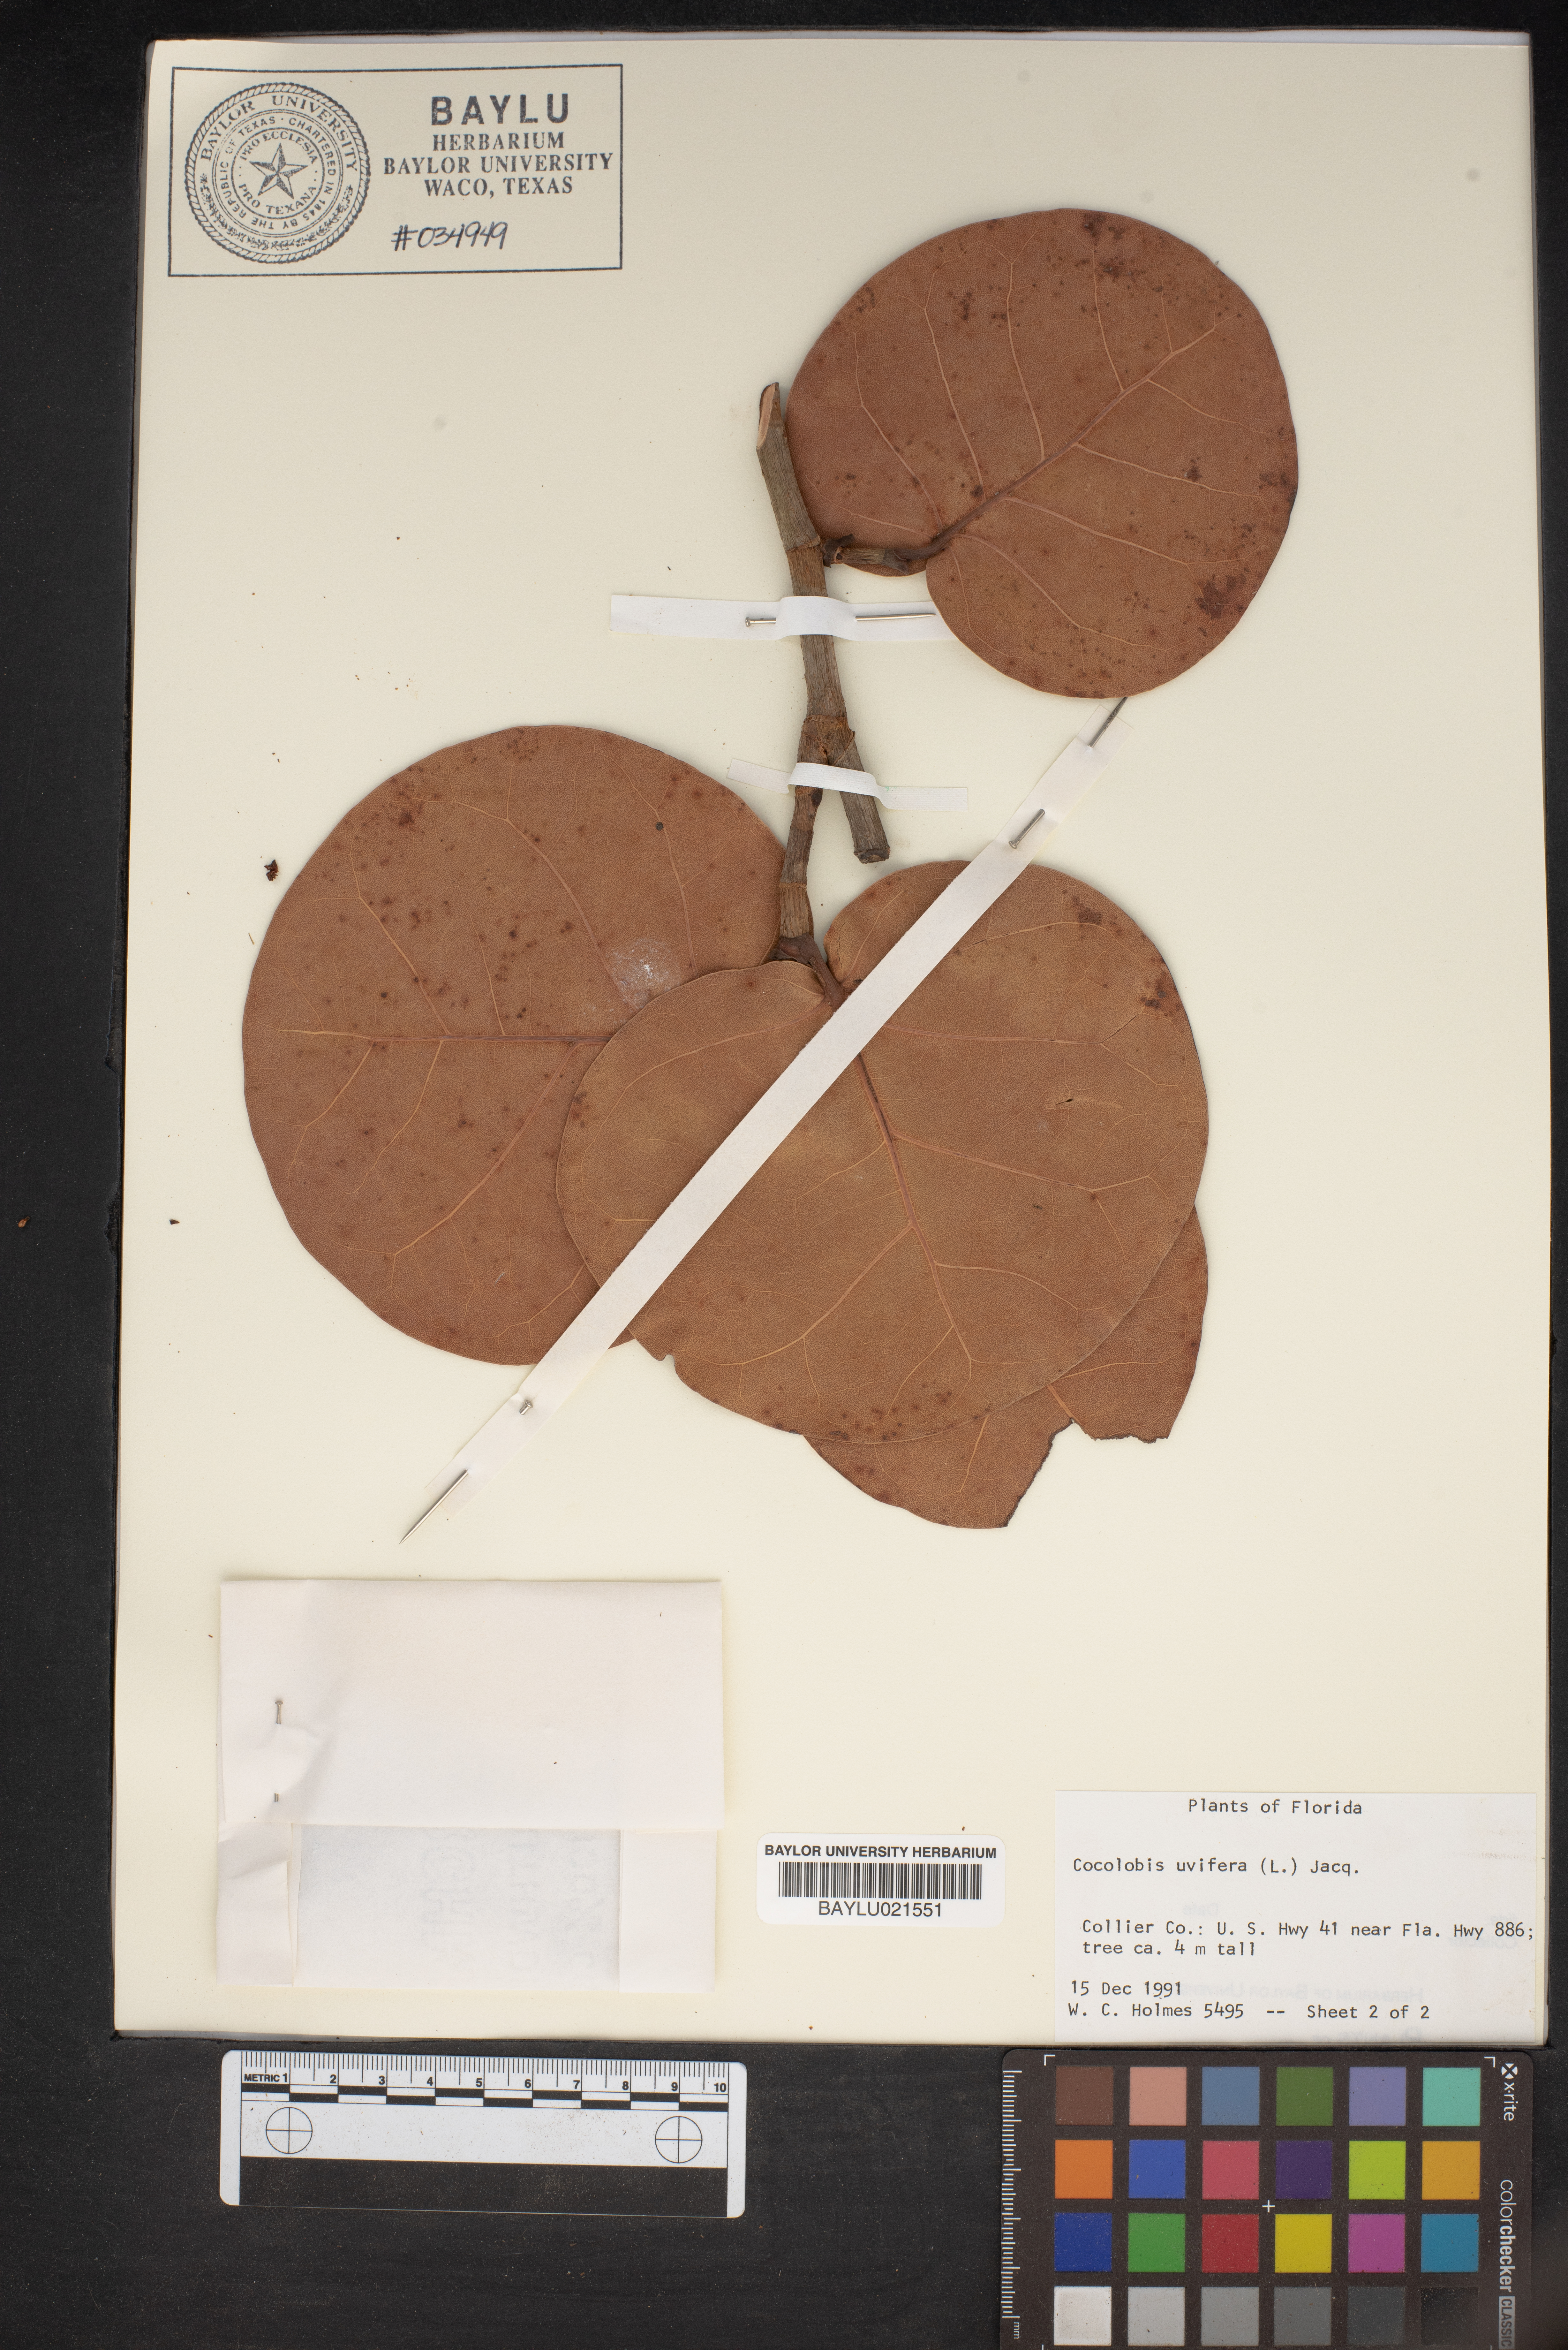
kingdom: Plantae
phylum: Tracheophyta
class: Magnoliopsida
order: Caryophyllales
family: Polygonaceae
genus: Coccoloba
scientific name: Coccoloba uvifera
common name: Seagrape
